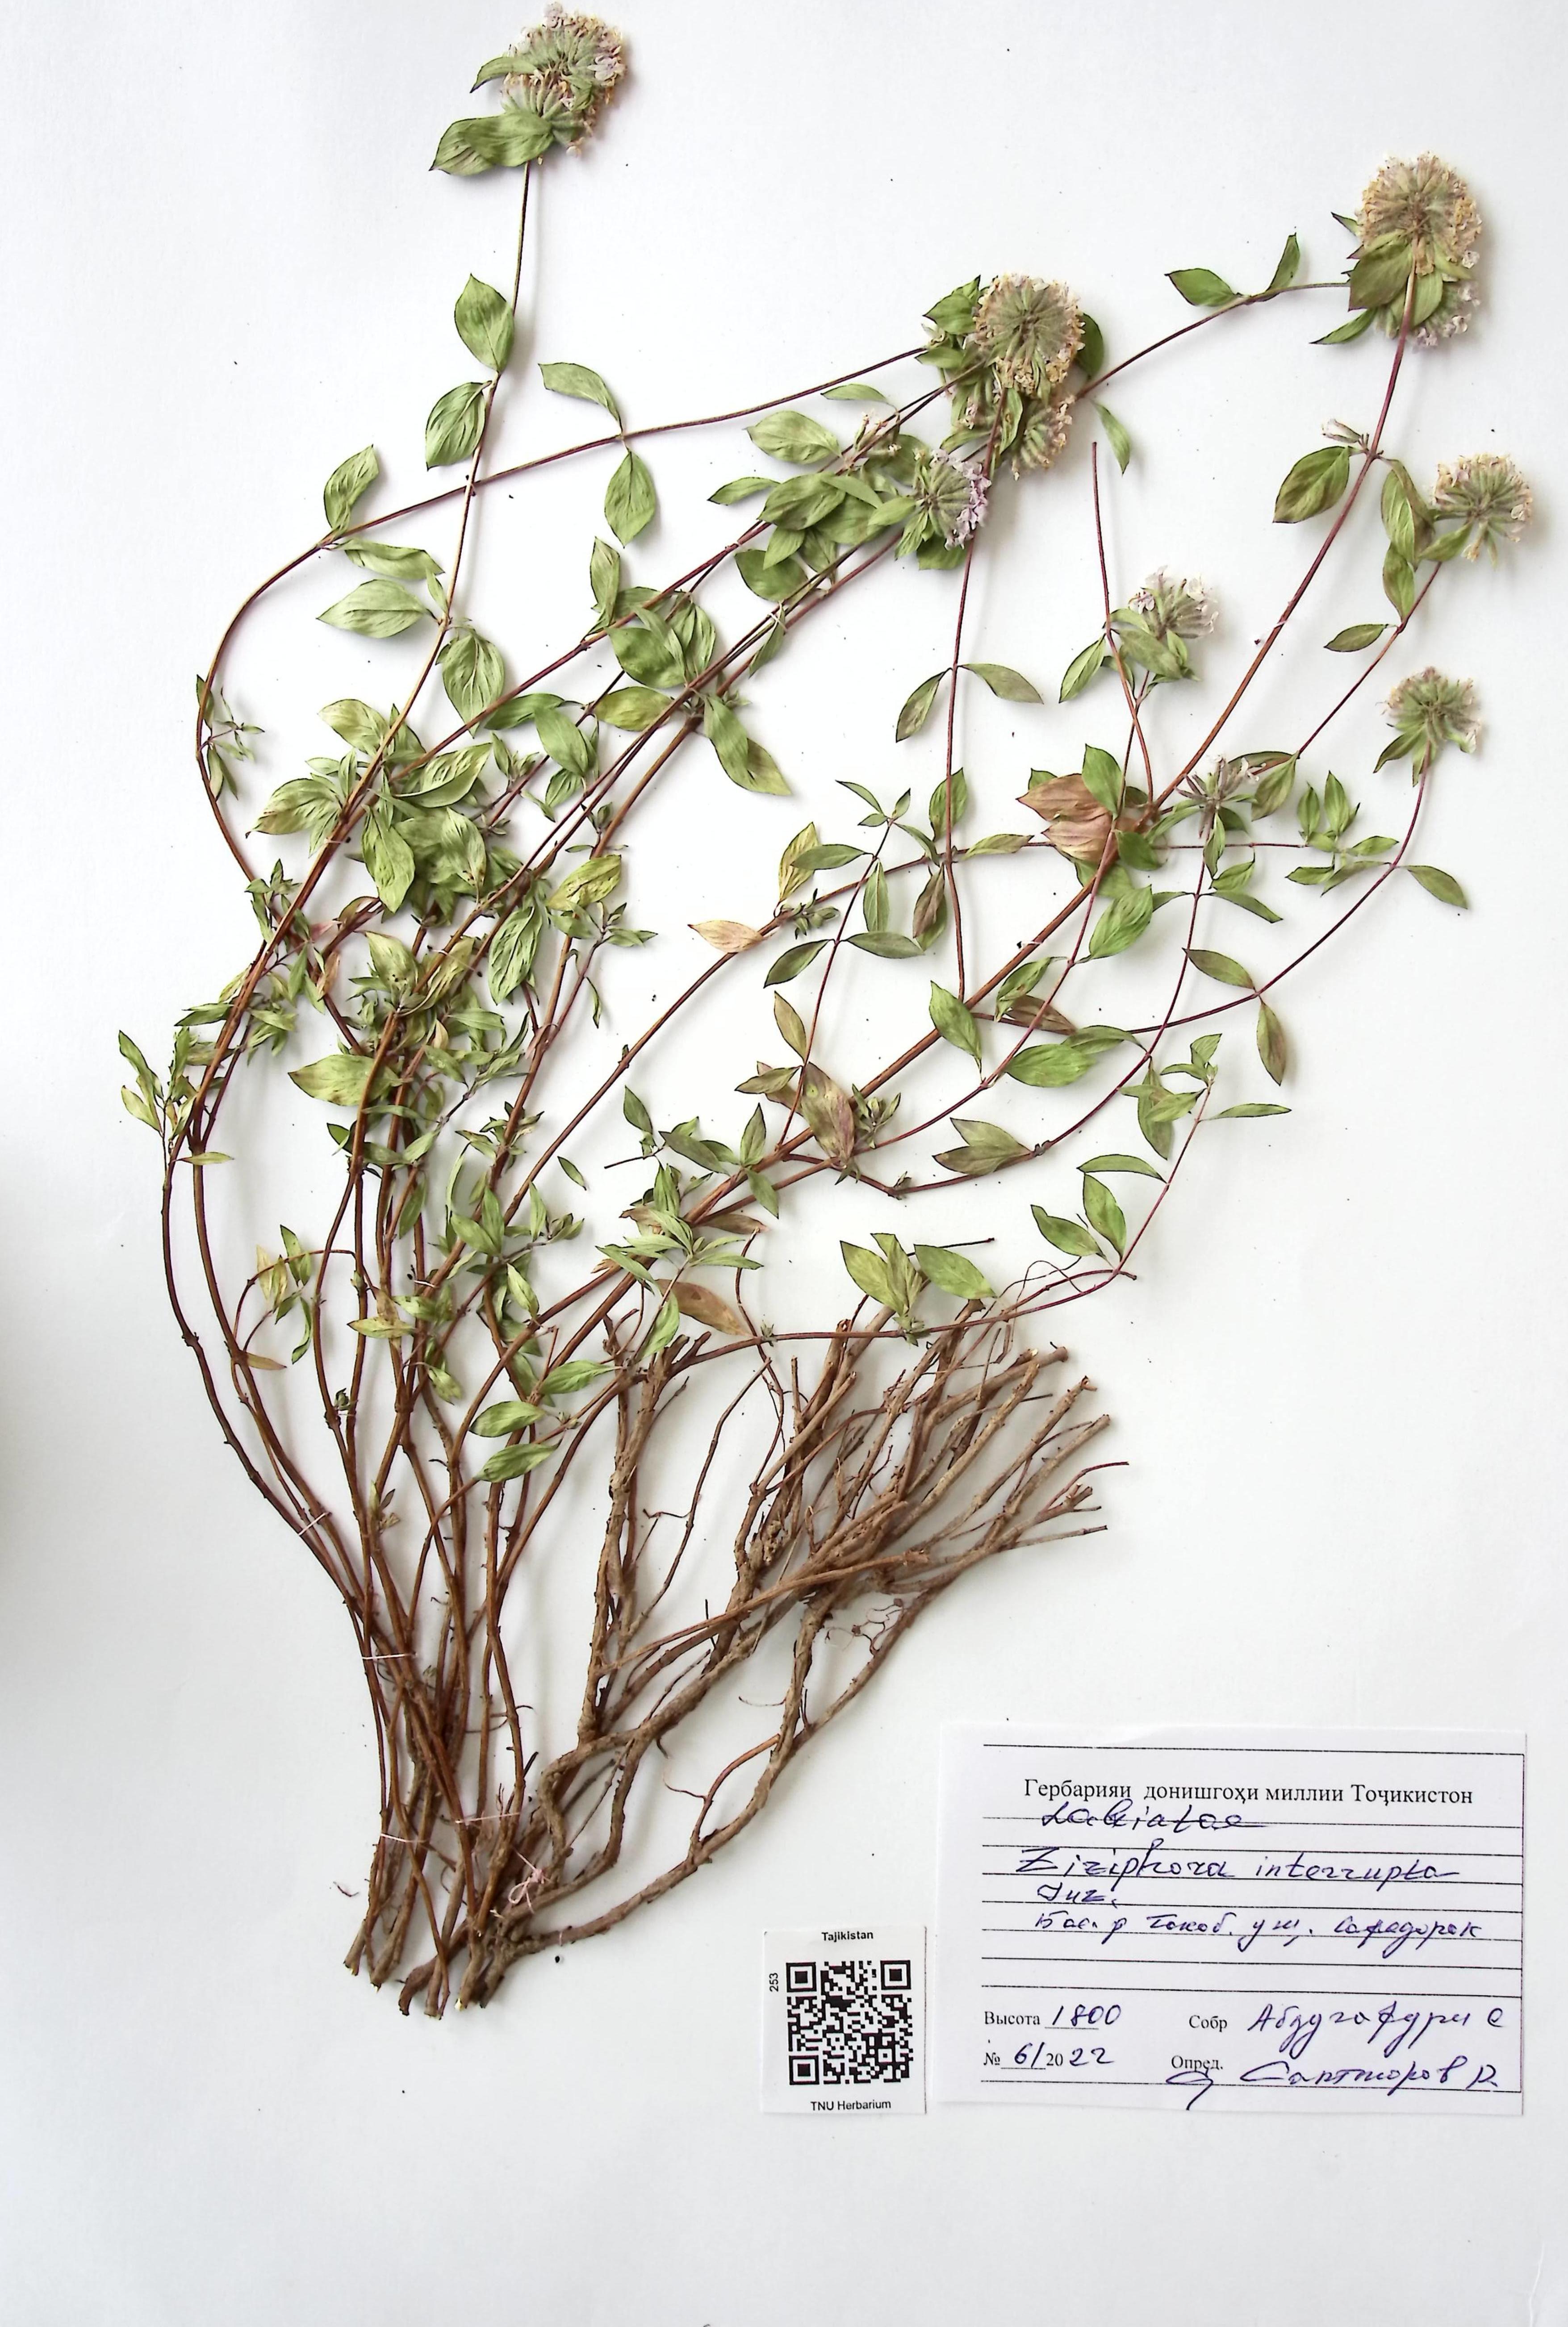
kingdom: Plantae
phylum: Tracheophyta
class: Magnoliopsida
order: Lamiales
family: Lamiaceae
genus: Ziziphora
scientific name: Ziziphora interrupta
